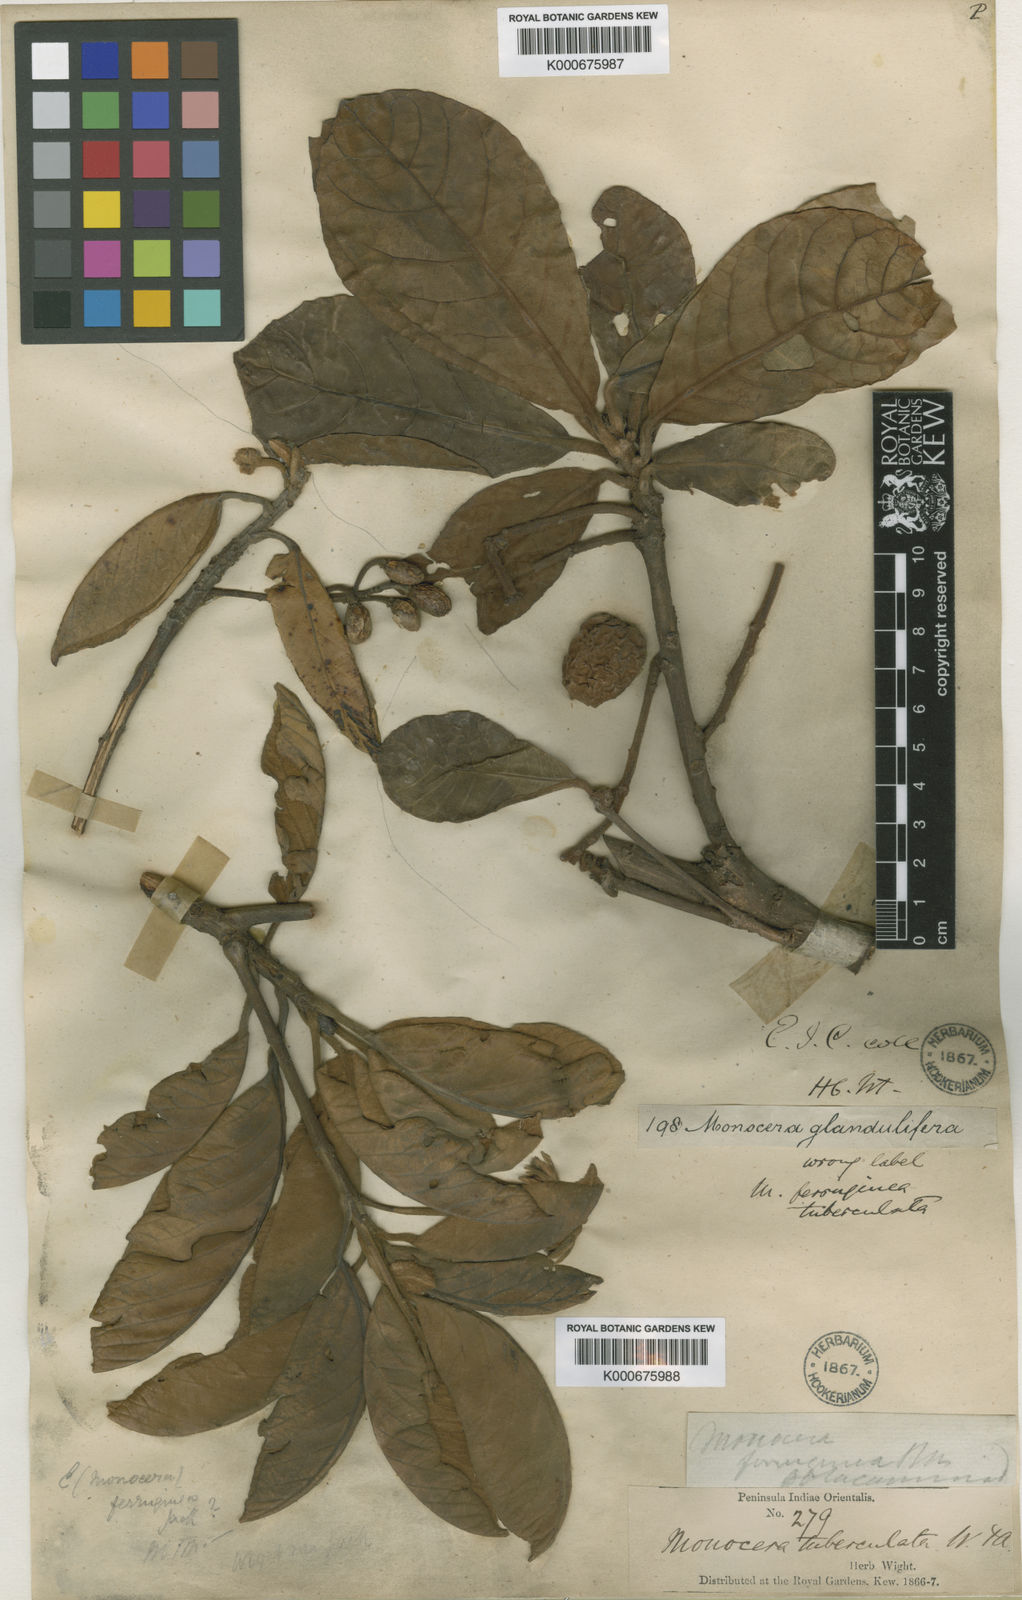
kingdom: Plantae
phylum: Tracheophyta
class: Magnoliopsida
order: Oxalidales
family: Elaeocarpaceae
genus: Elaeocarpus
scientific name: Elaeocarpus recurvatus
